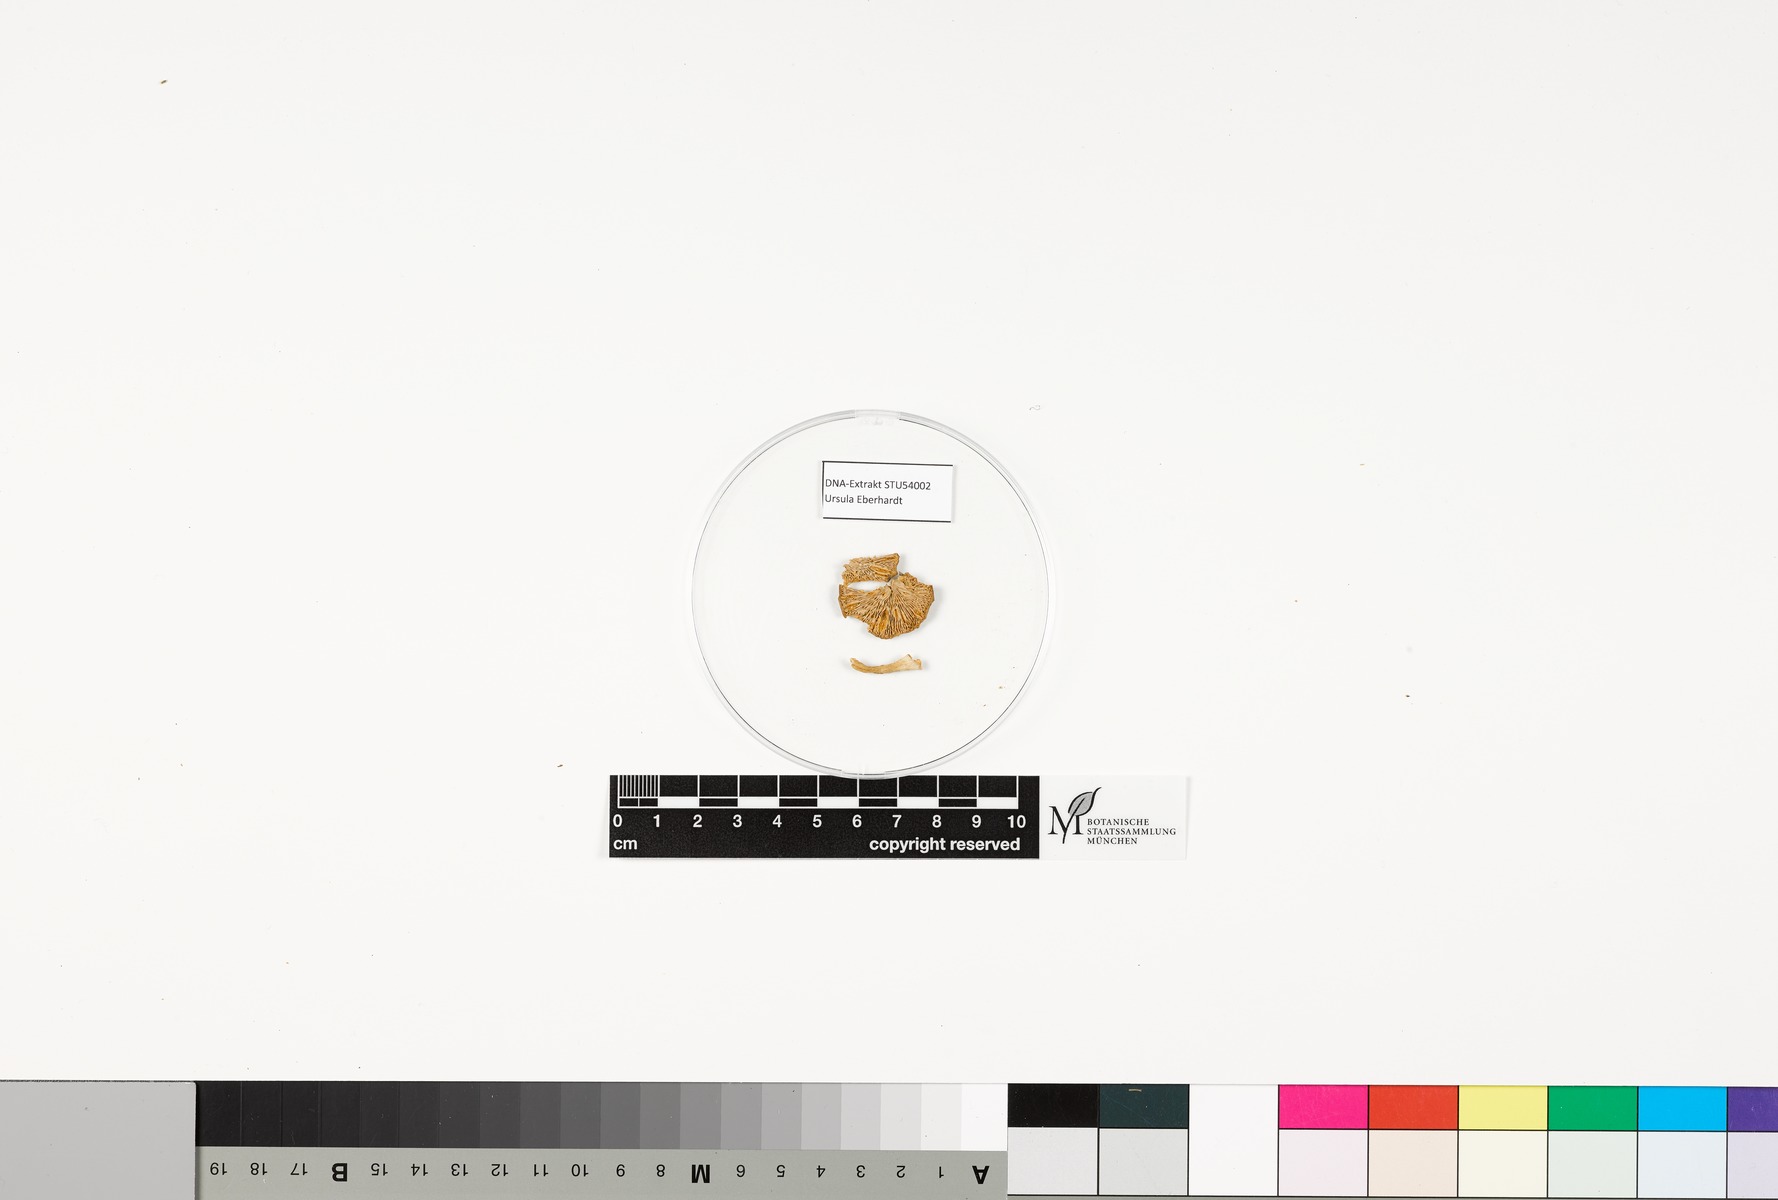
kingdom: Fungi
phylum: Basidiomycota
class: Agaricomycetes
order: Russulales
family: Russulaceae
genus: Lactarius
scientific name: Lactarius glyciosmus
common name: Coconut milkcap
